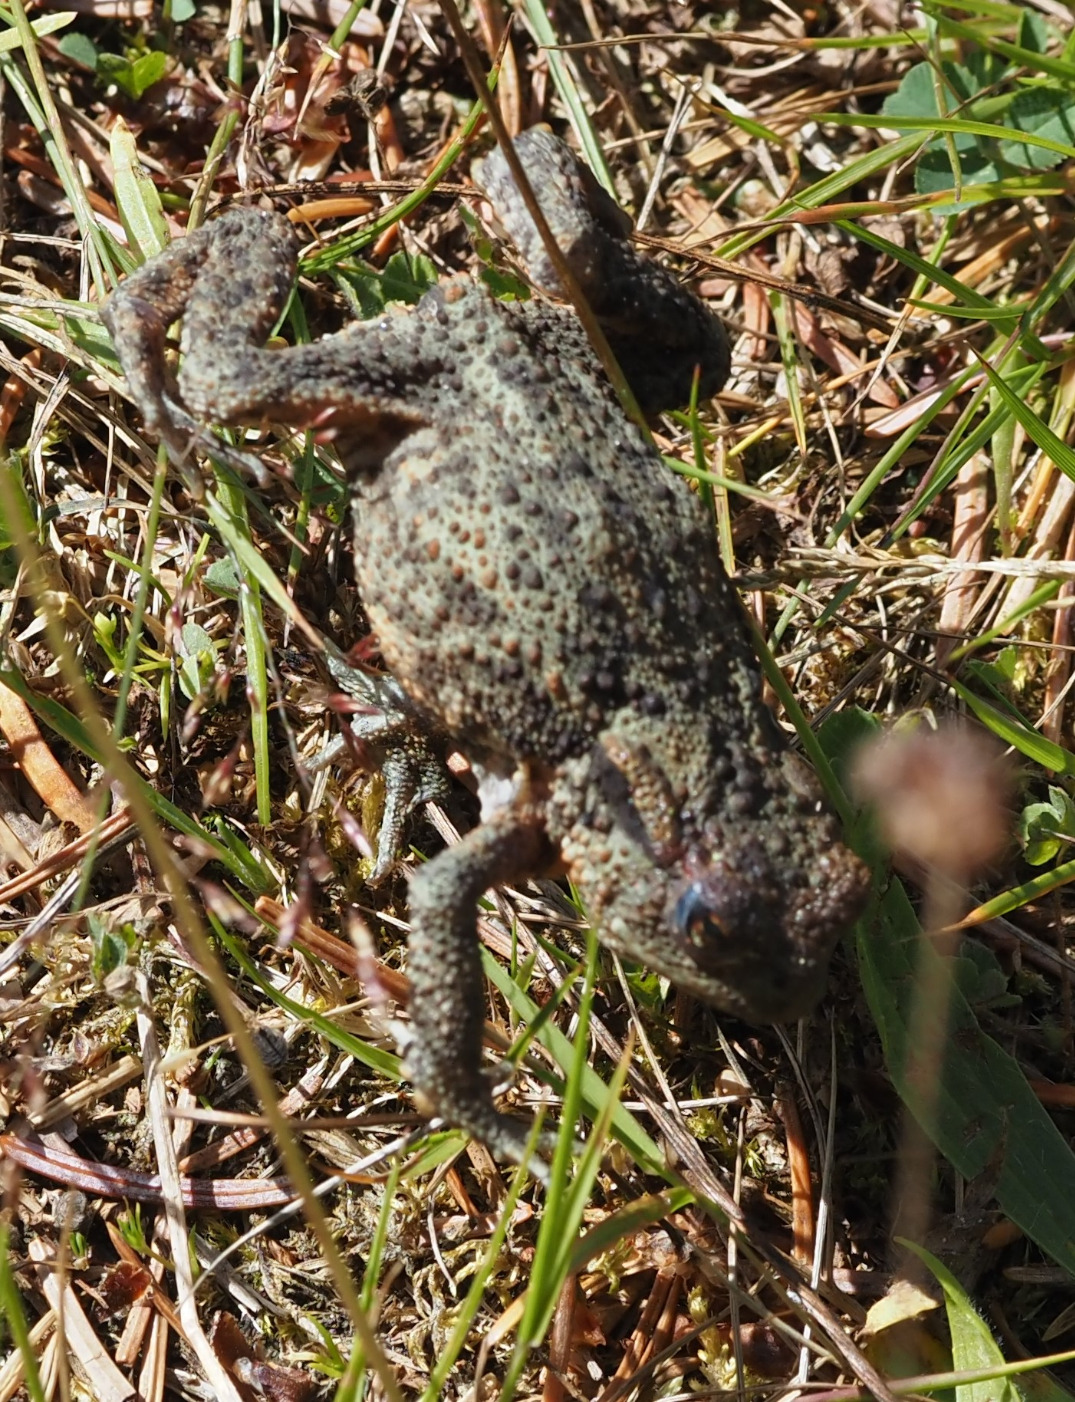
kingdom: Animalia
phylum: Chordata
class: Amphibia
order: Anura
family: Bufonidae
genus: Bufo
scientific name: Bufo bufo
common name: Skrubtudse
